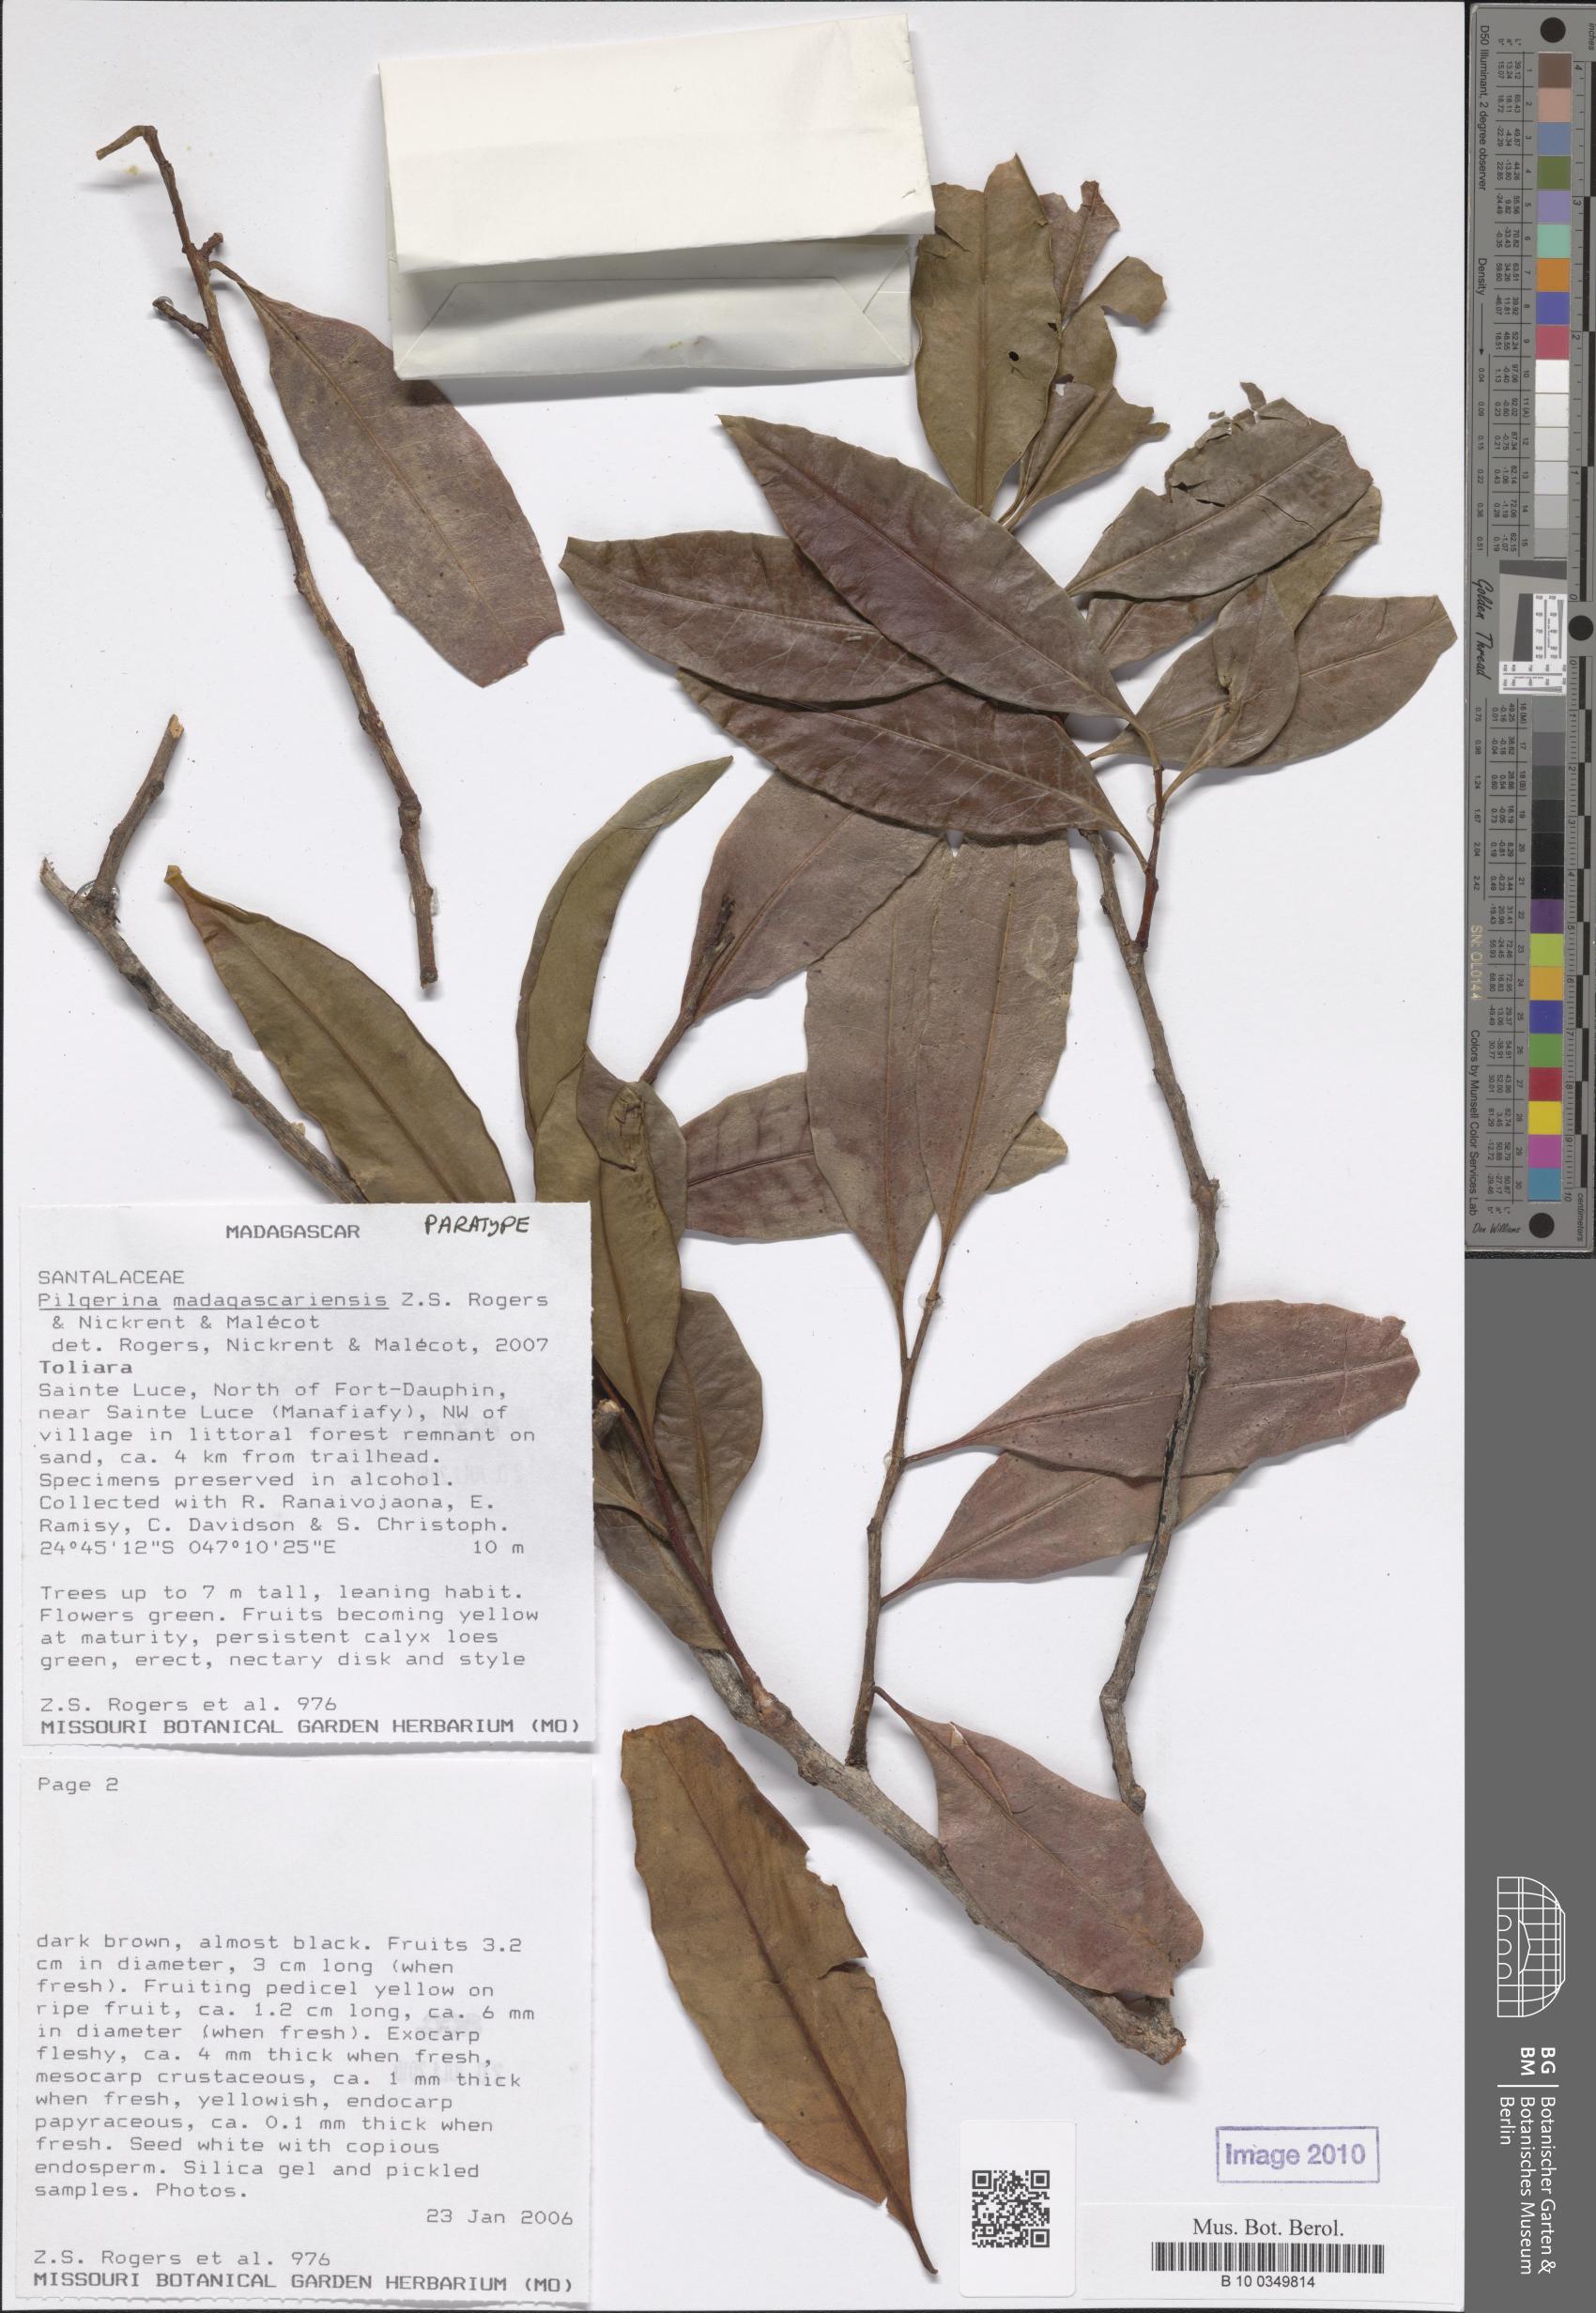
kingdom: Plantae
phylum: Tracheophyta
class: Magnoliopsida
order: Santalales
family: Cervantesiaceae
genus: Pilgerina
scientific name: Pilgerina madagascariensis
